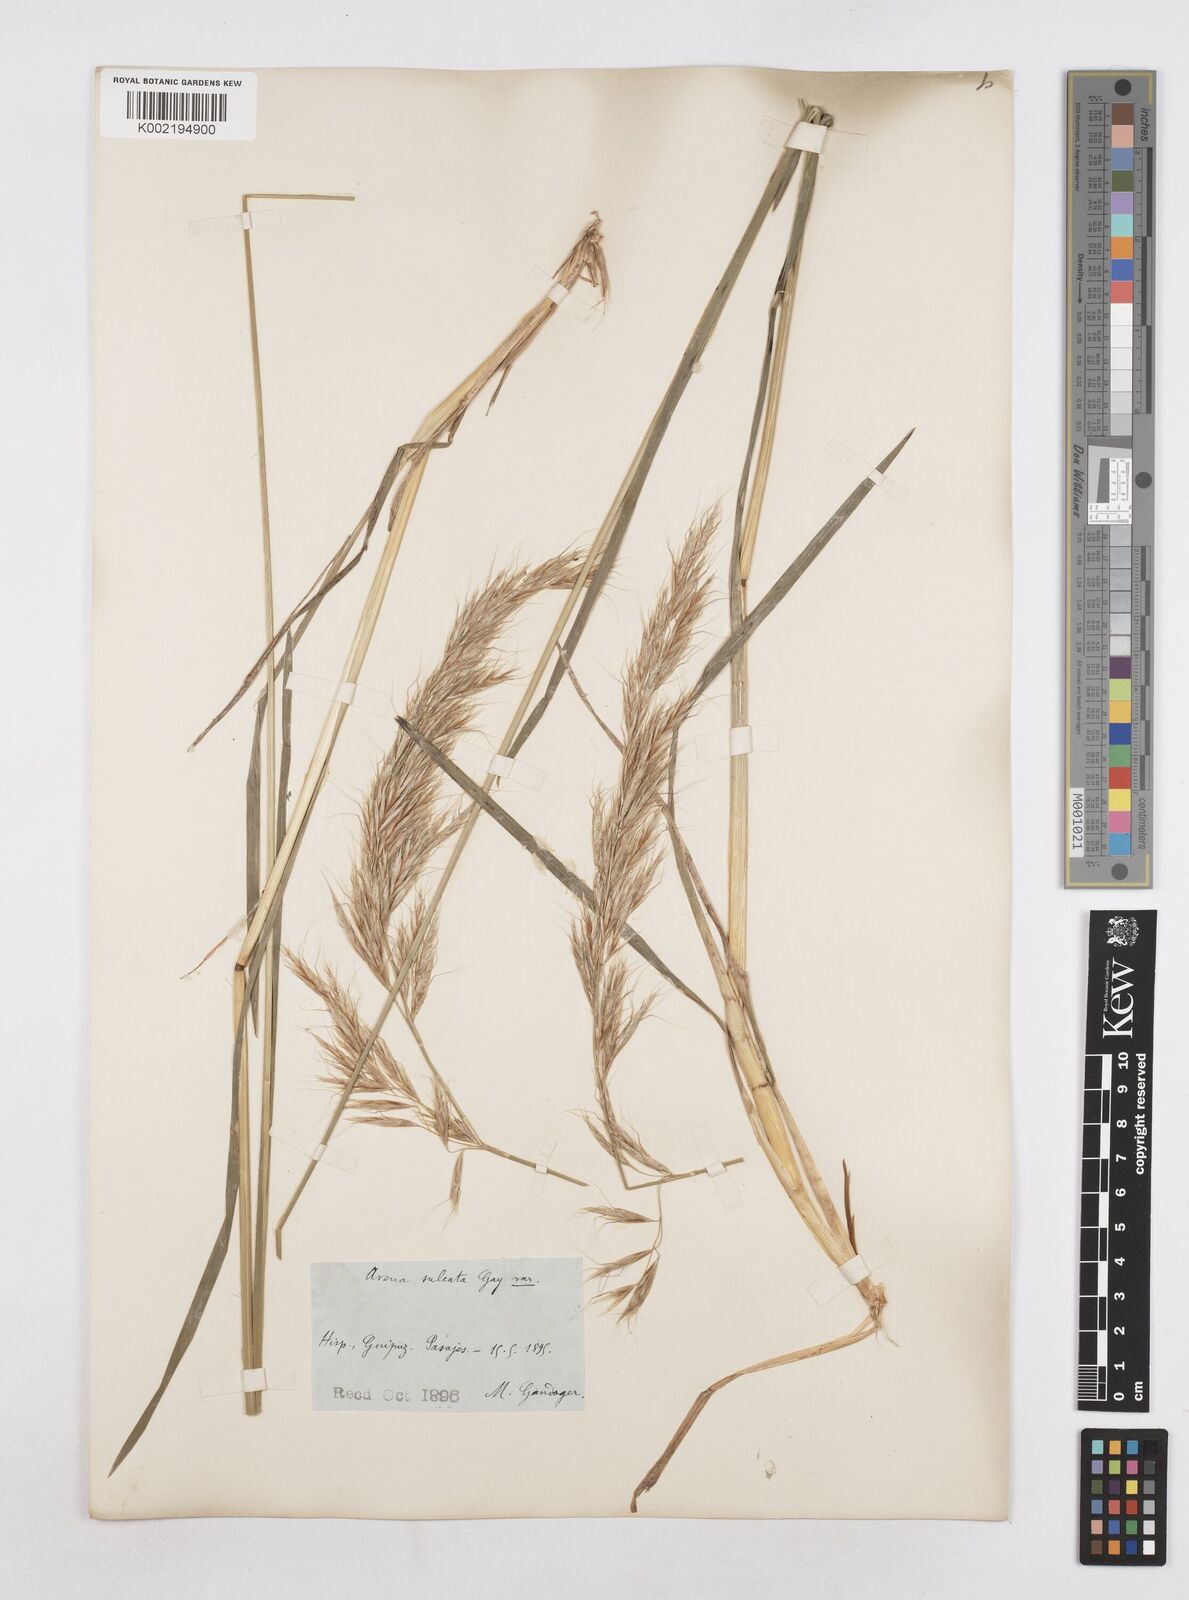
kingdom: Plantae
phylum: Tracheophyta
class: Liliopsida
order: Poales
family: Poaceae
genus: Helictotrichon
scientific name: Helictotrichon
